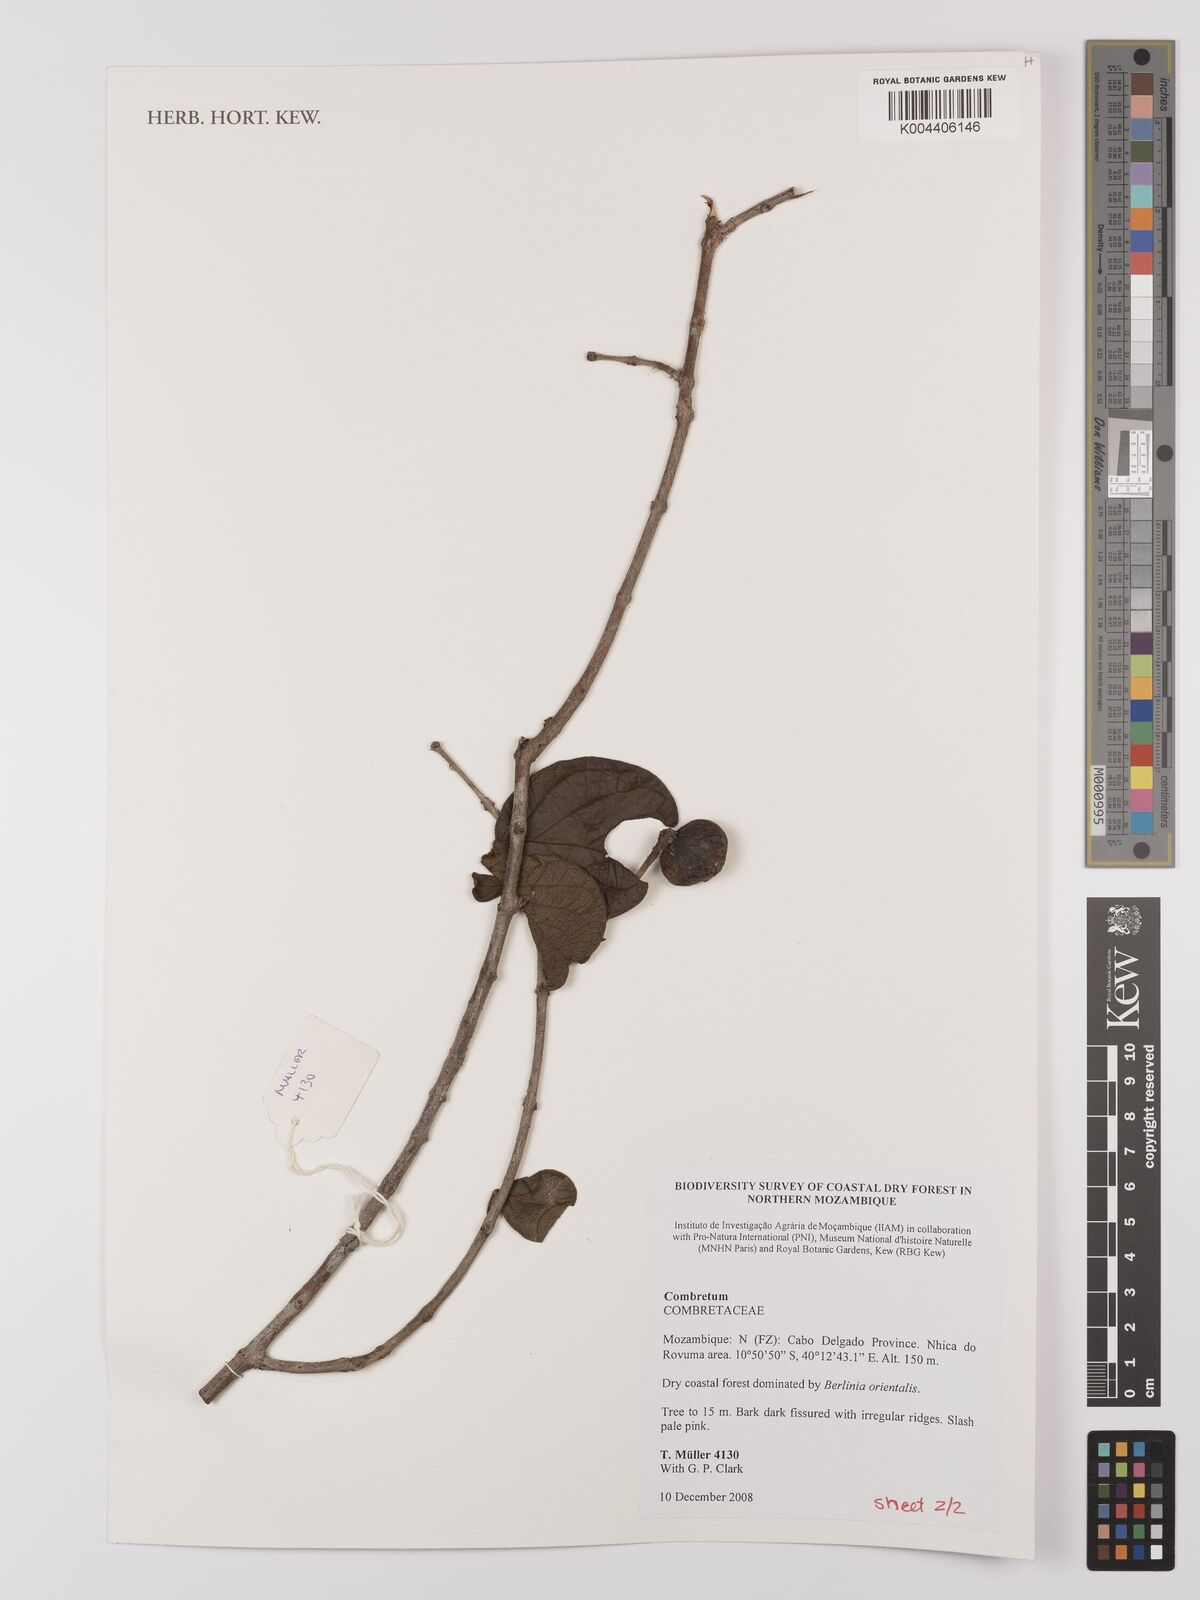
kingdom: Plantae
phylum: Tracheophyta
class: Magnoliopsida
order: Myrtales
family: Combretaceae
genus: Combretum
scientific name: Combretum
